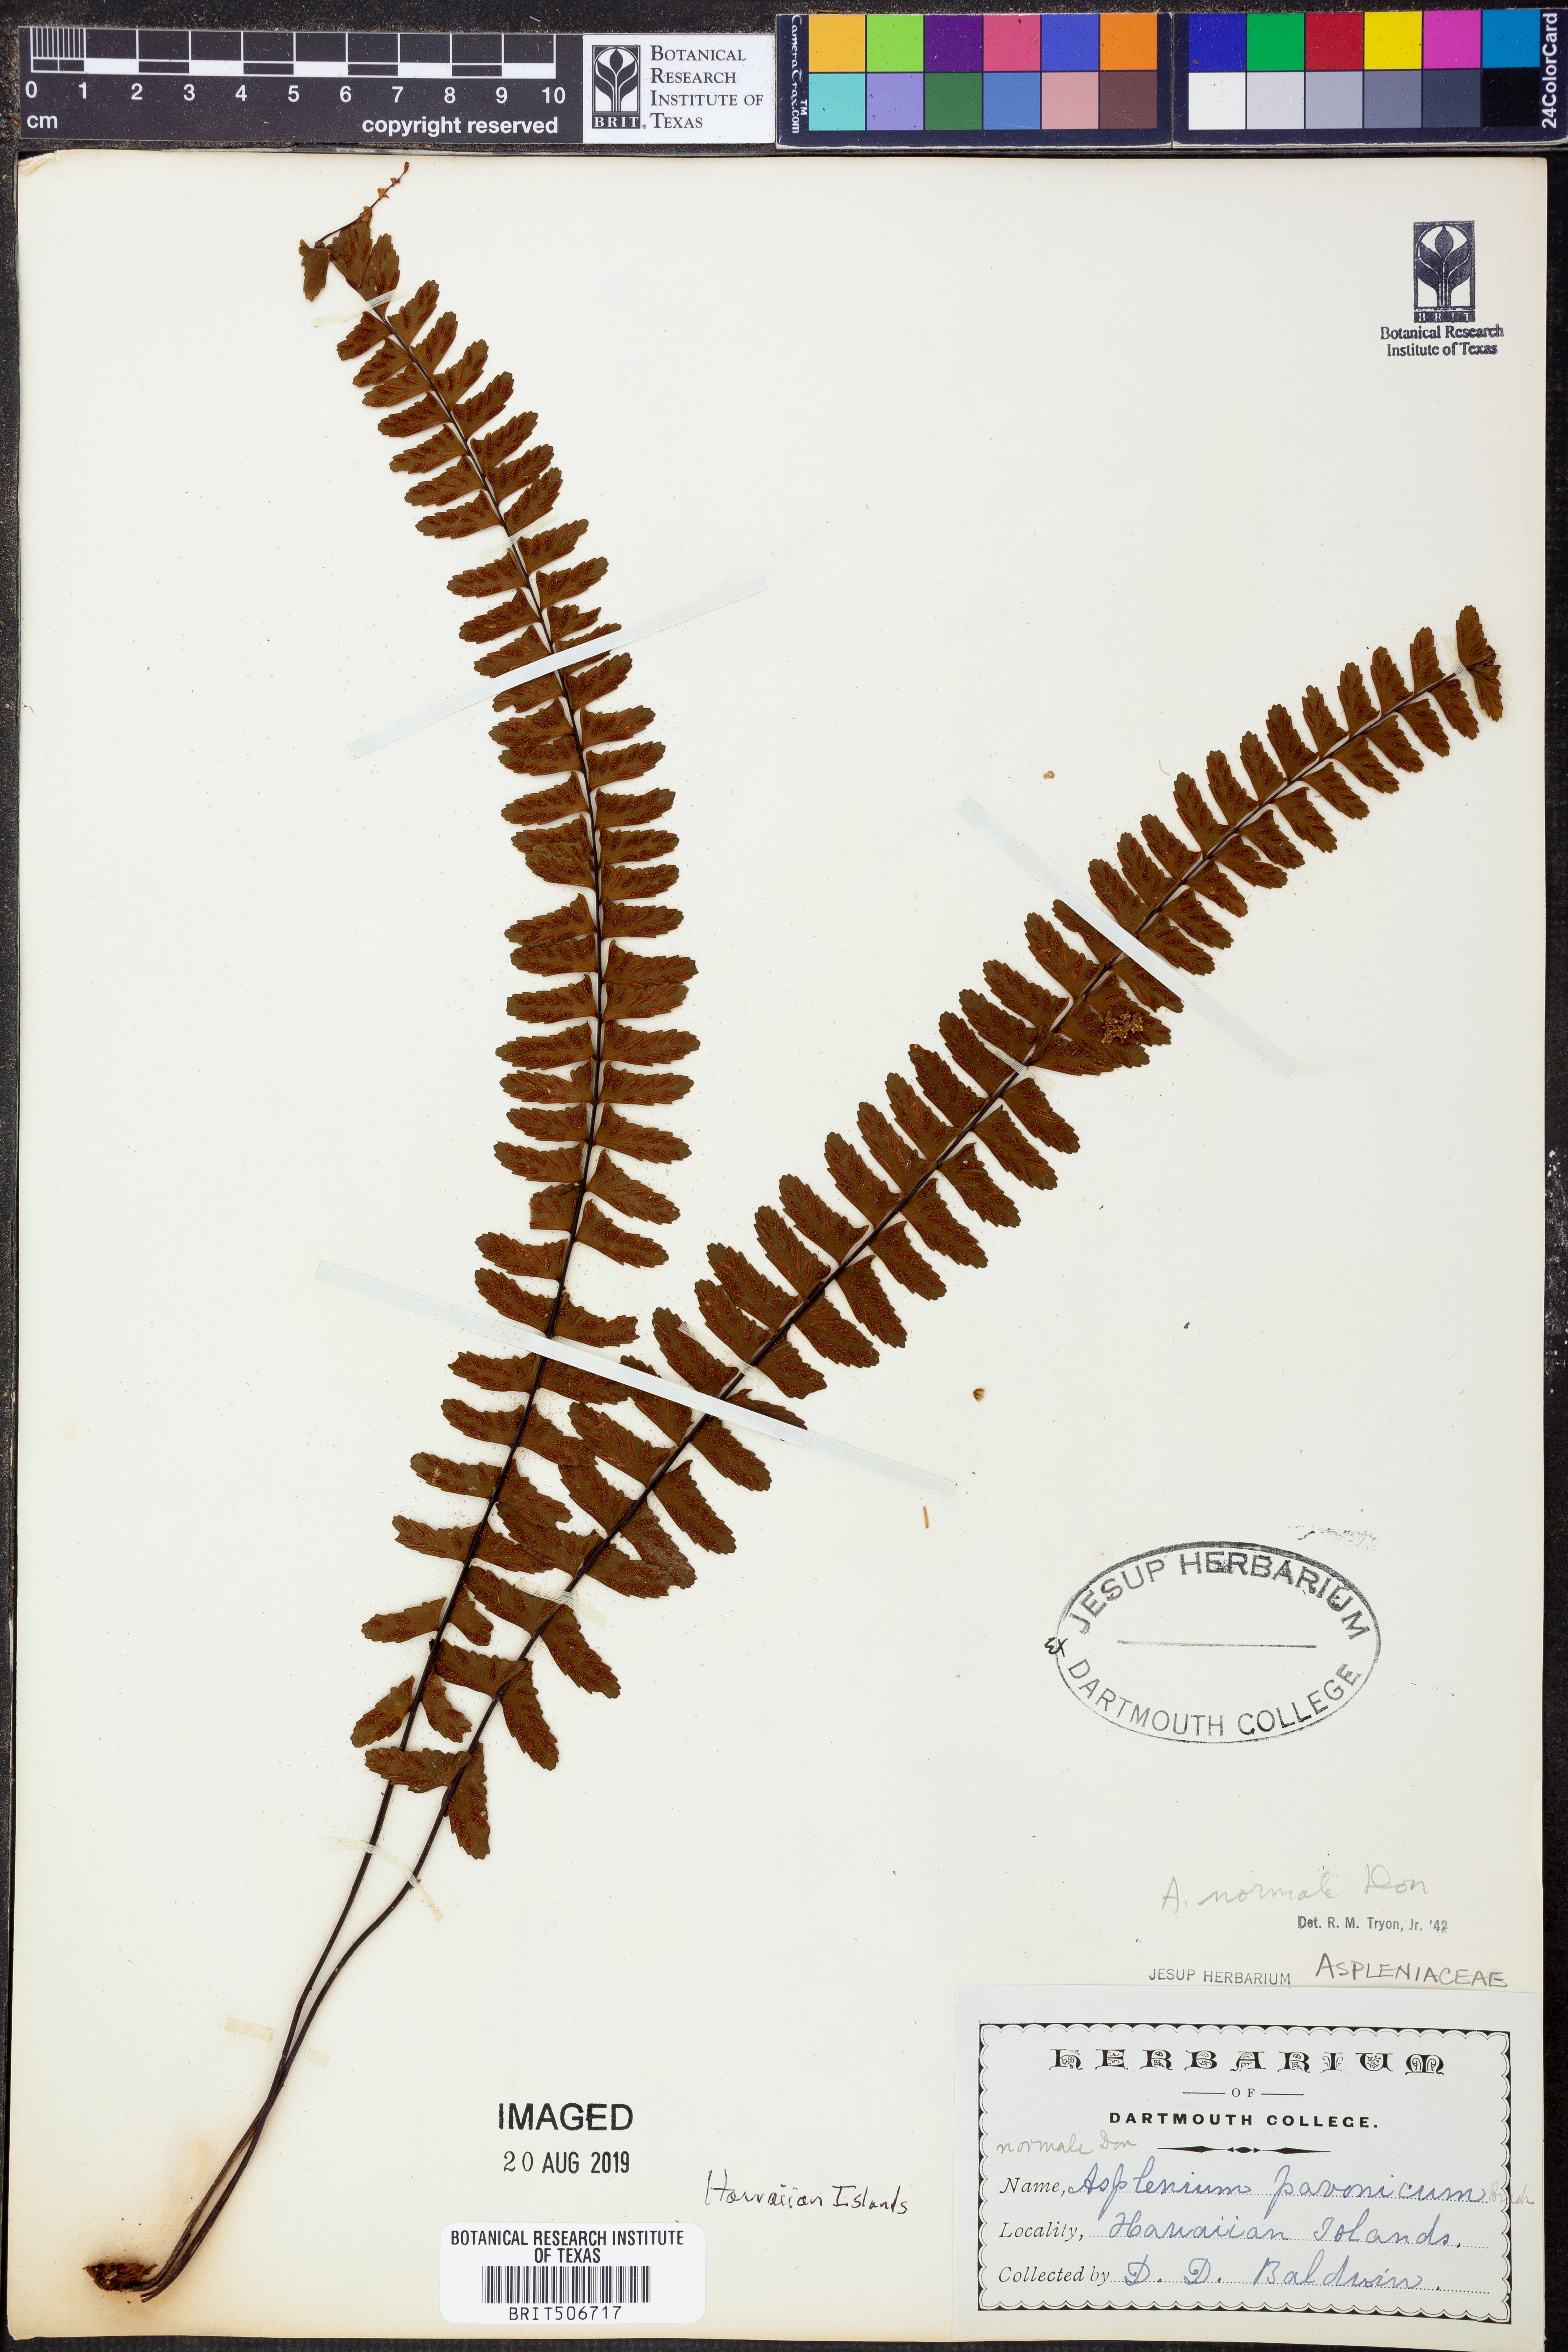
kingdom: Plantae
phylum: Tracheophyta
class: Polypodiopsida
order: Polypodiales
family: Aspleniaceae
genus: Asplenium
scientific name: Asplenium normale
